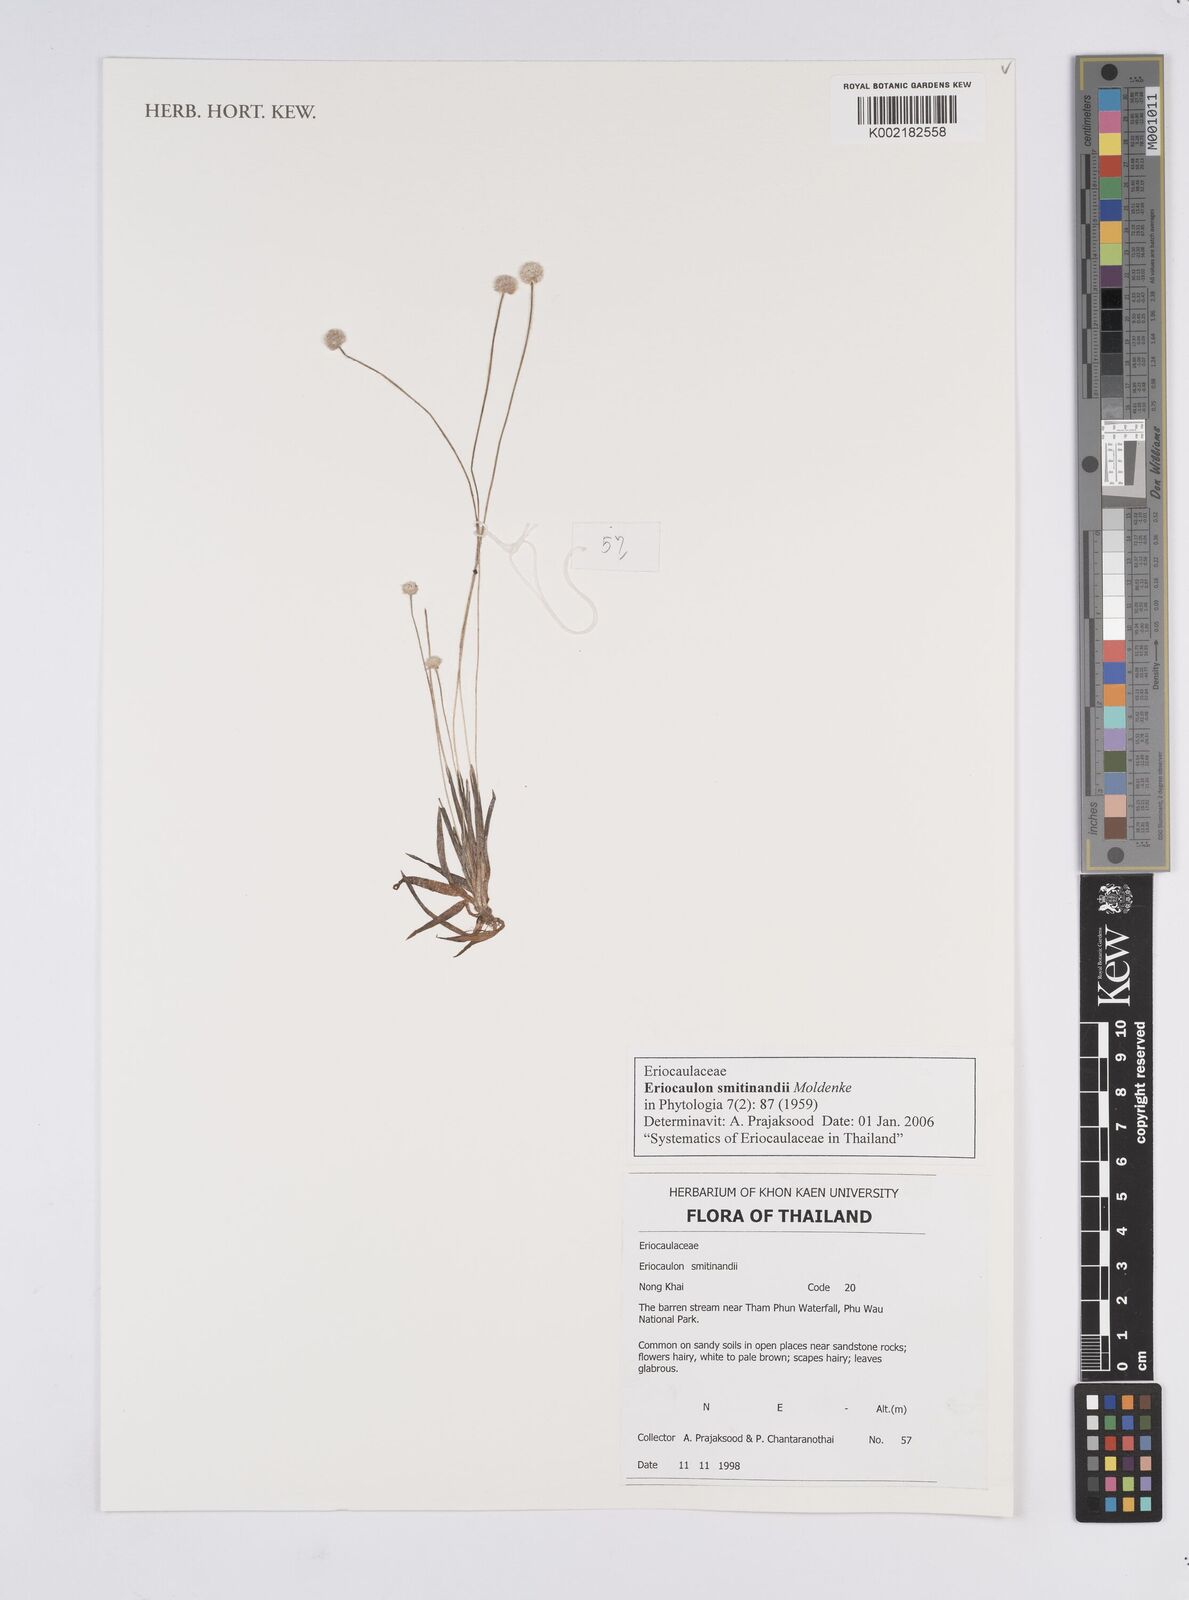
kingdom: Plantae
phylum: Tracheophyta
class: Liliopsida
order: Poales
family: Eriocaulaceae
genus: Eriocaulon
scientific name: Eriocaulon smitinandii
